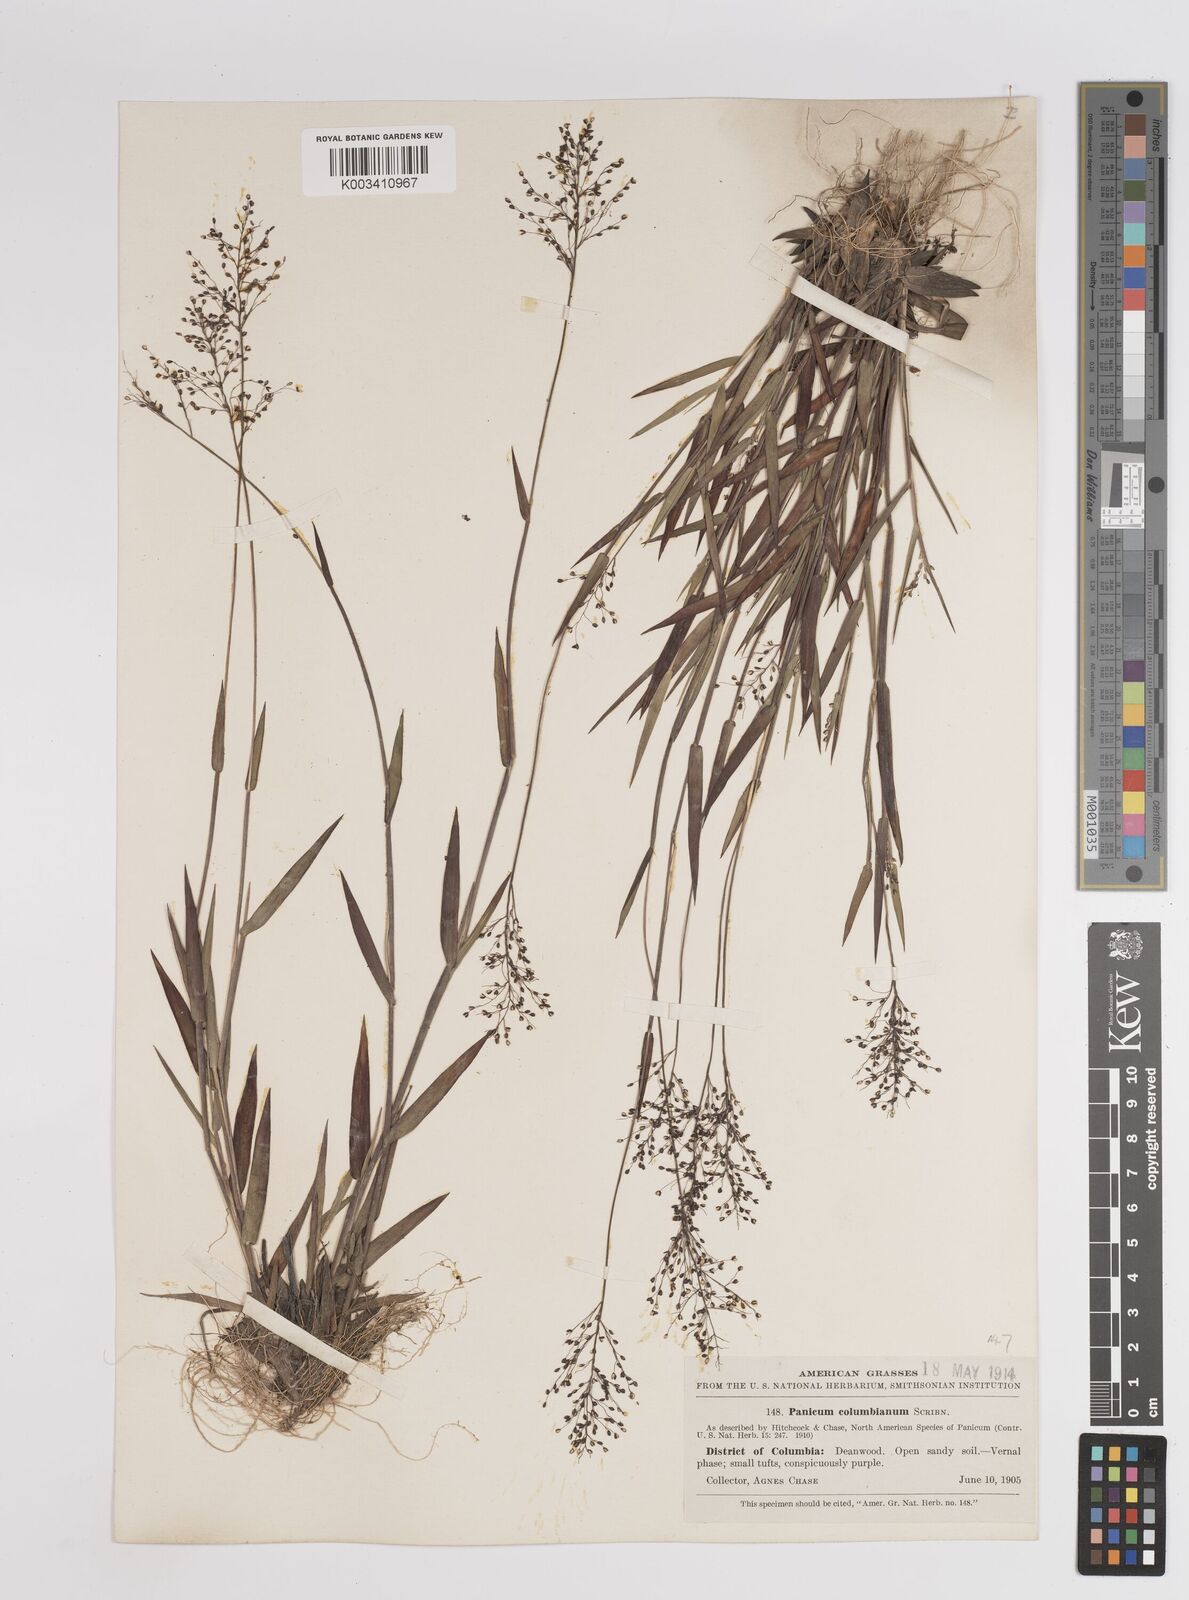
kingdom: Plantae
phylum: Tracheophyta
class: Liliopsida
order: Poales
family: Poaceae
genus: Dichanthelium
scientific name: Dichanthelium columbianum
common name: Hemlock panic grass
